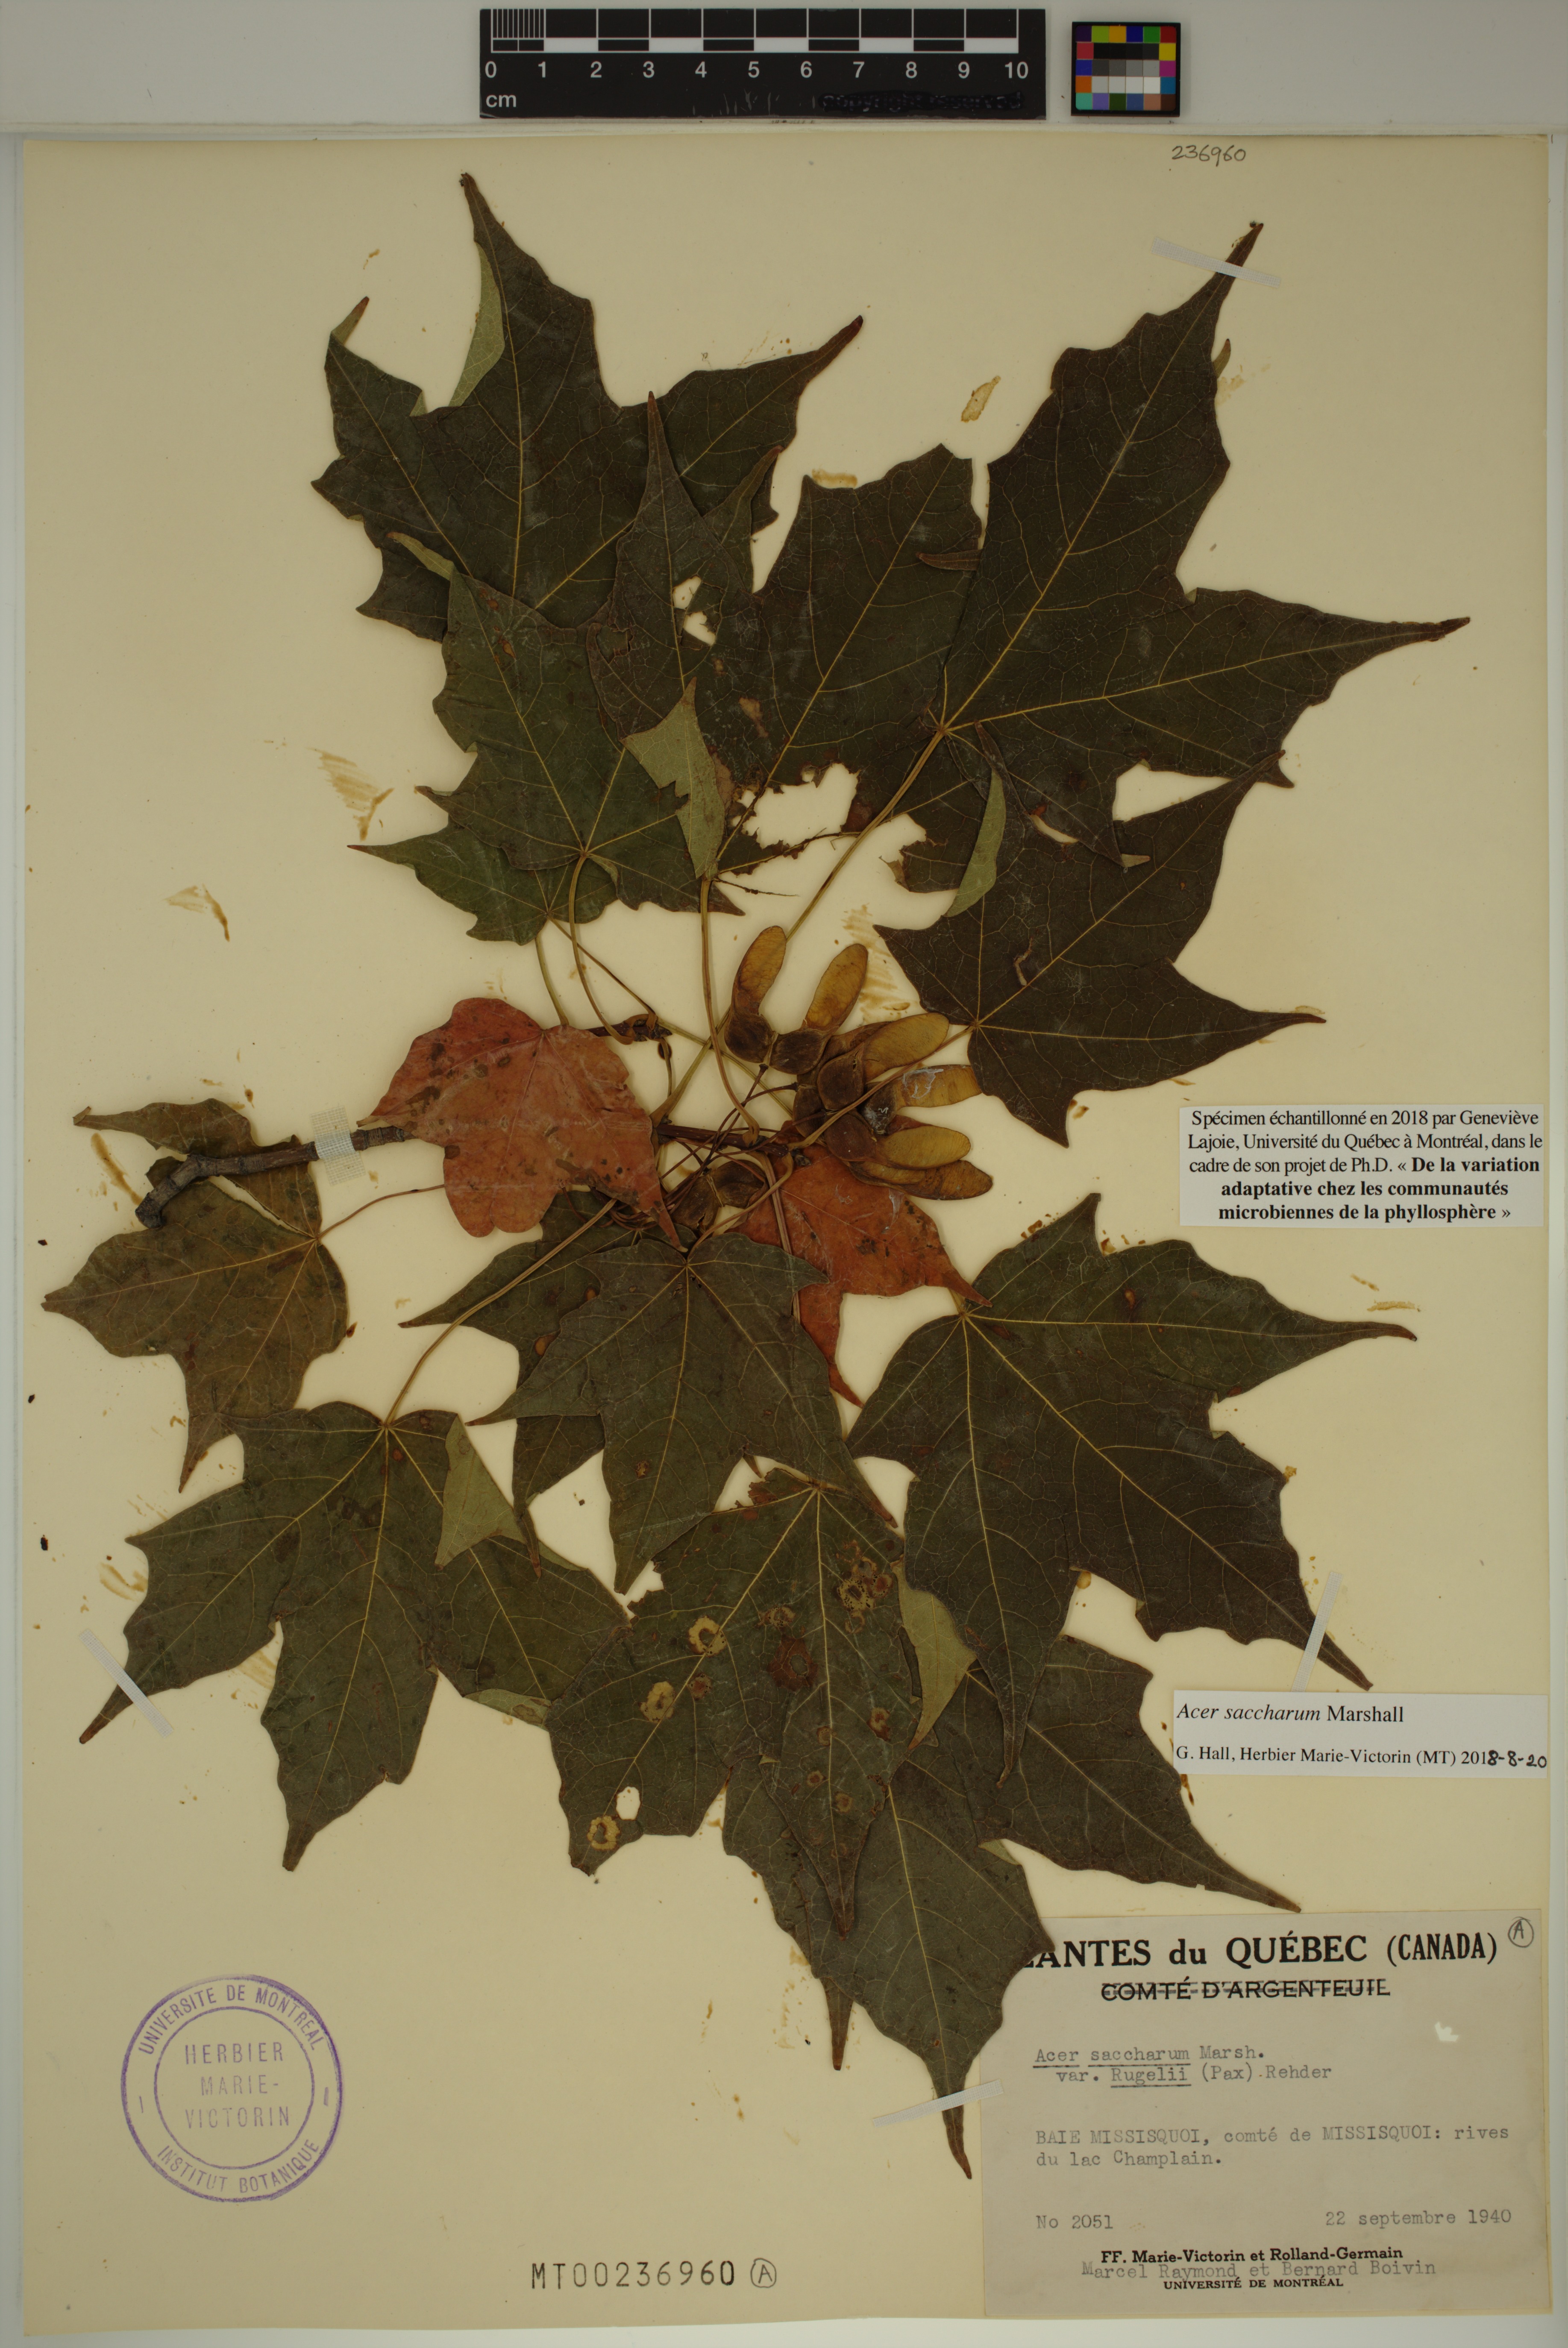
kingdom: Plantae
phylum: Tracheophyta
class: Magnoliopsida
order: Sapindales
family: Sapindaceae
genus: Acer
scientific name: Acer saccharum
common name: Sugar maple
